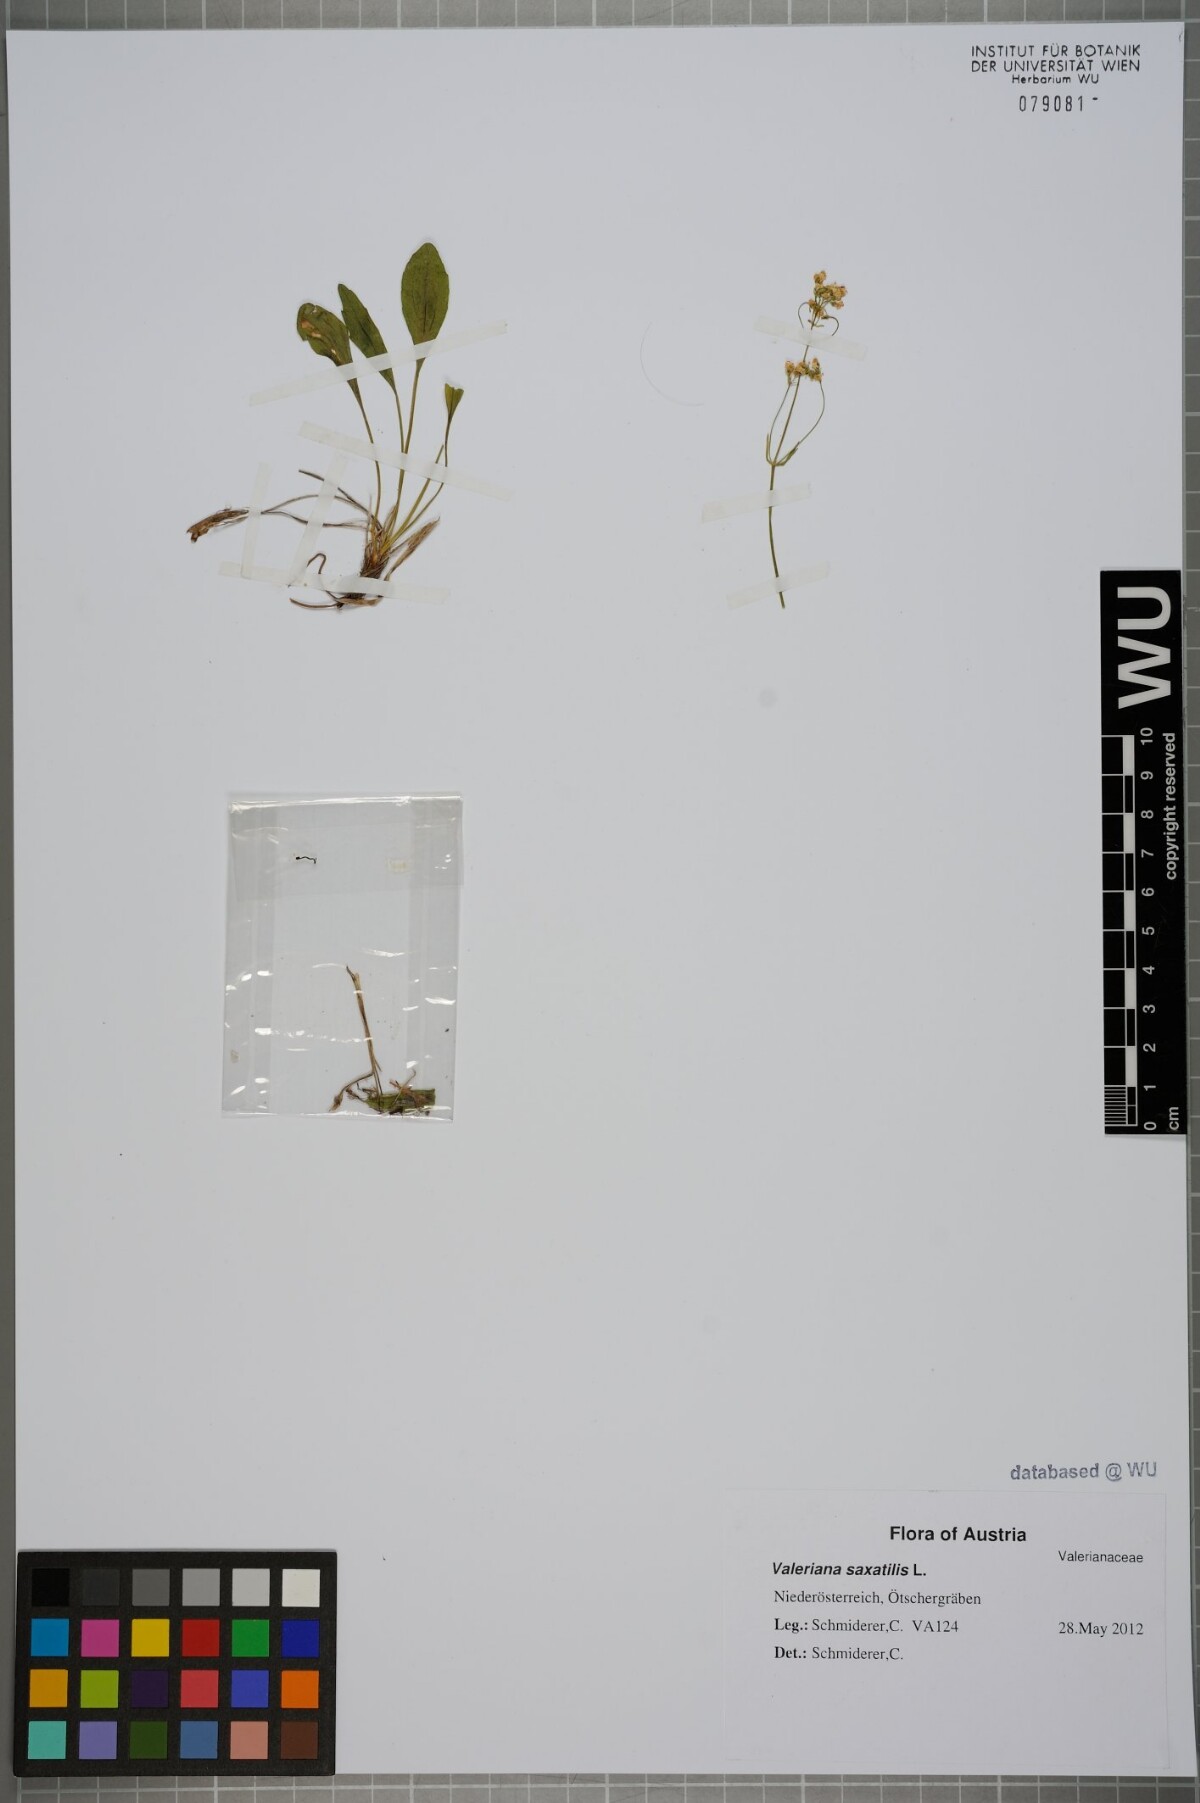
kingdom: Plantae
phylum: Tracheophyta
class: Magnoliopsida
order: Dipsacales
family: Caprifoliaceae
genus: Valeriana
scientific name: Valeriana saxatilis
